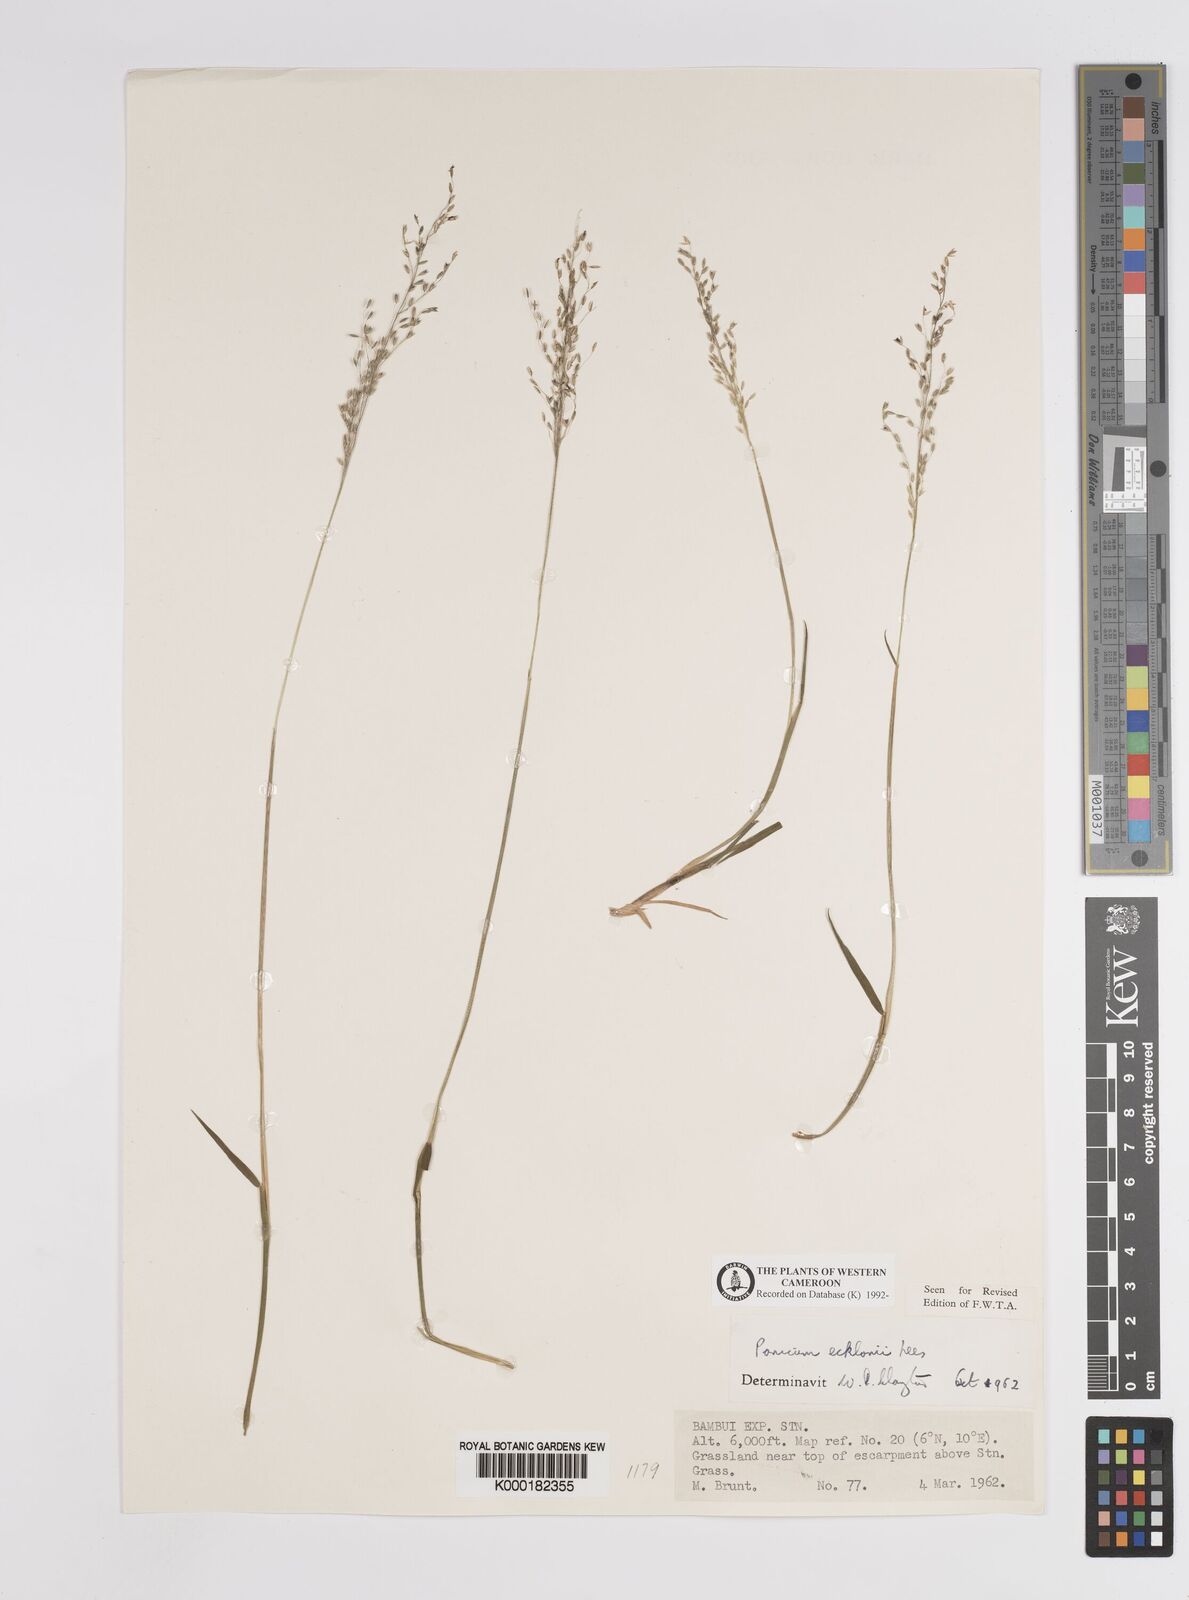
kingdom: Plantae
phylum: Tracheophyta
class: Liliopsida
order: Poales
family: Poaceae
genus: Adenochloa
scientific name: Adenochloa ecklonii
